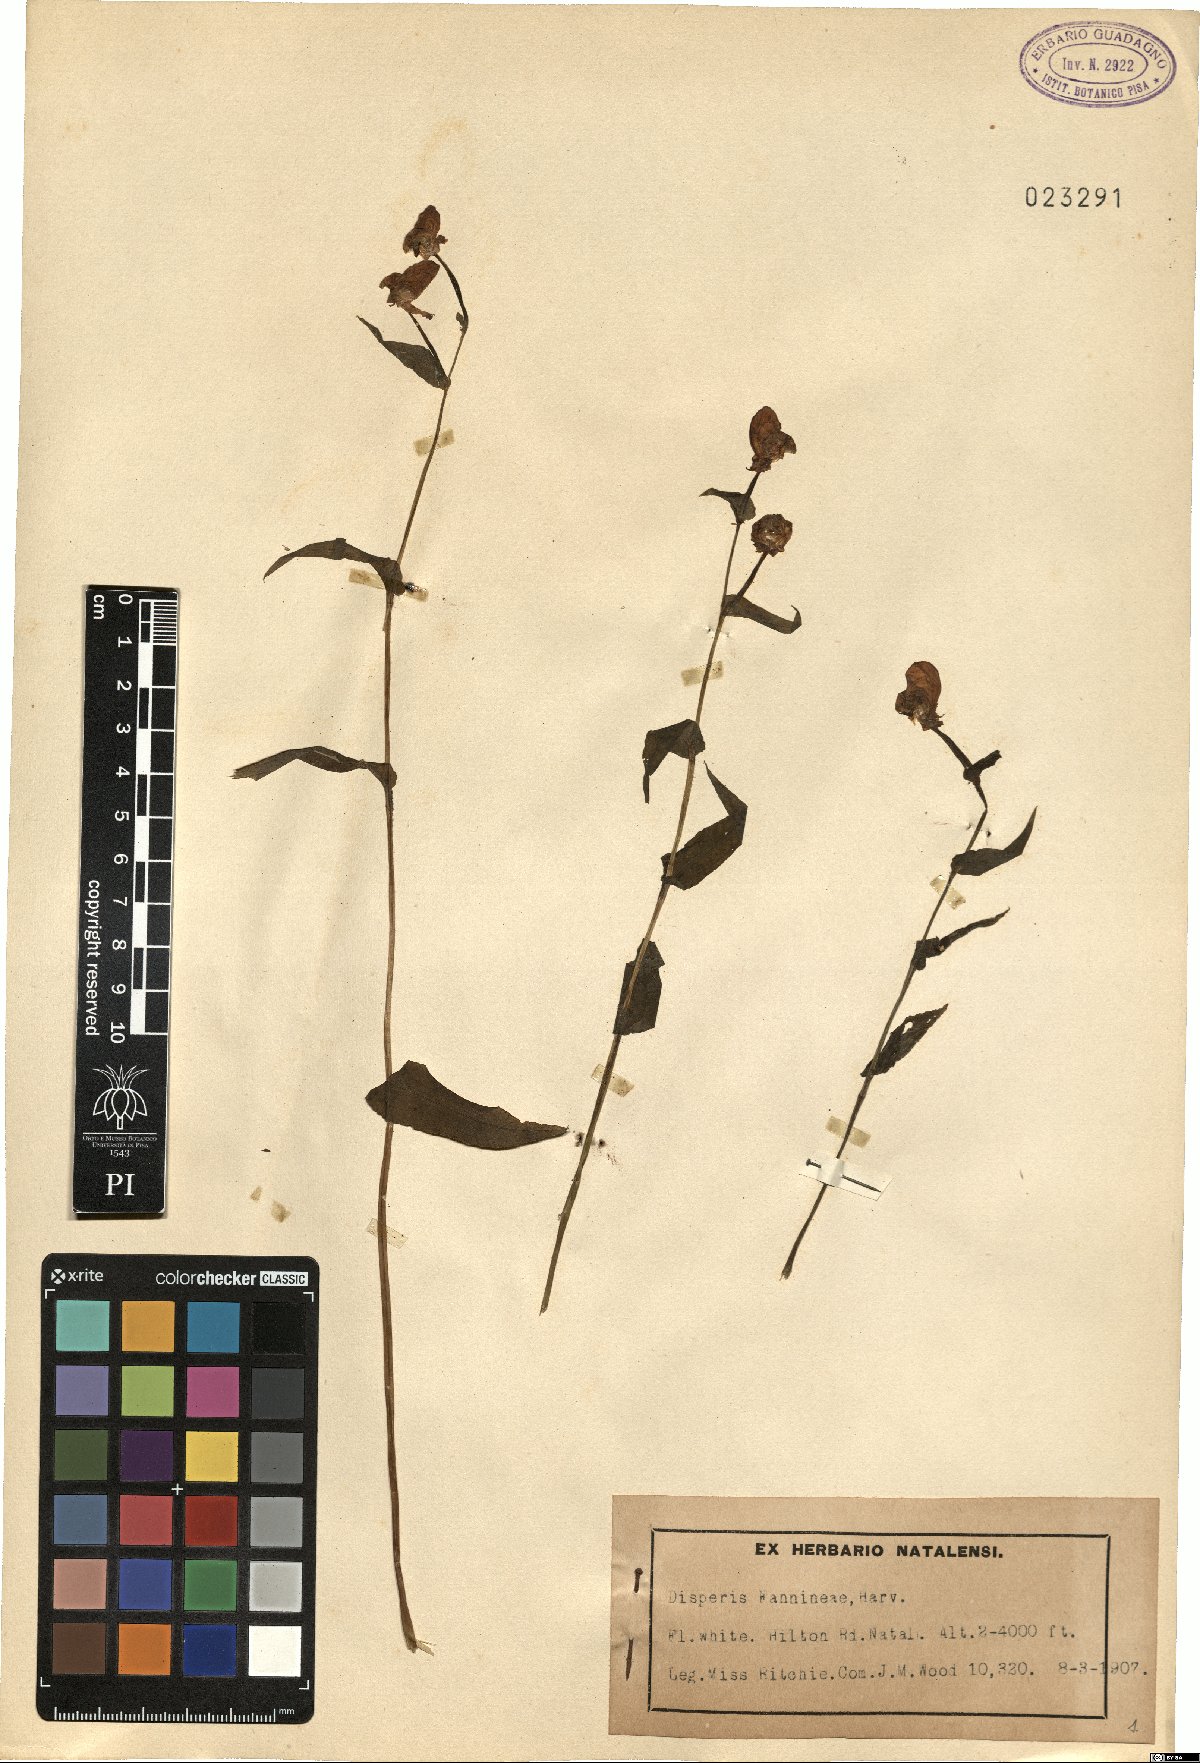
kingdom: Plantae
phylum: Tracheophyta
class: Liliopsida
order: Asparagales
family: Orchidaceae
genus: Disperis
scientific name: Disperis fanniniae
